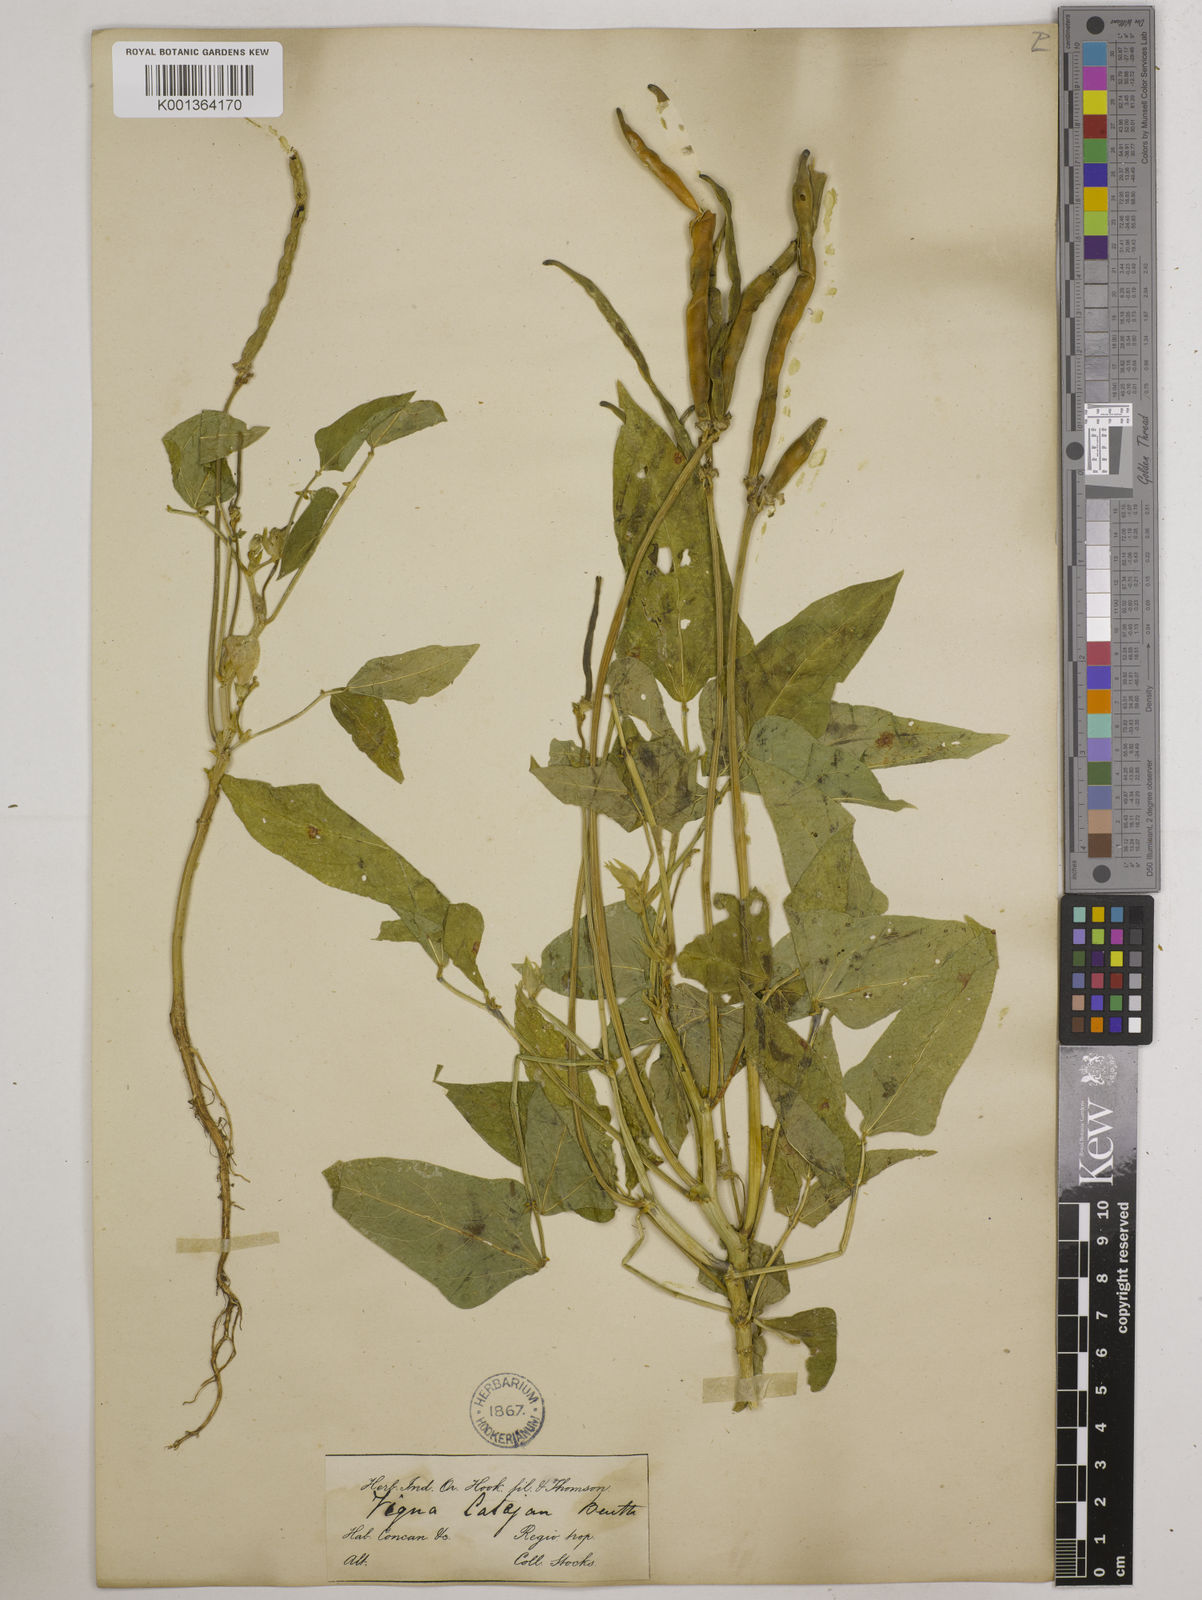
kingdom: Plantae
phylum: Tracheophyta
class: Magnoliopsida
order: Fabales
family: Fabaceae
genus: Vigna
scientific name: Vigna
